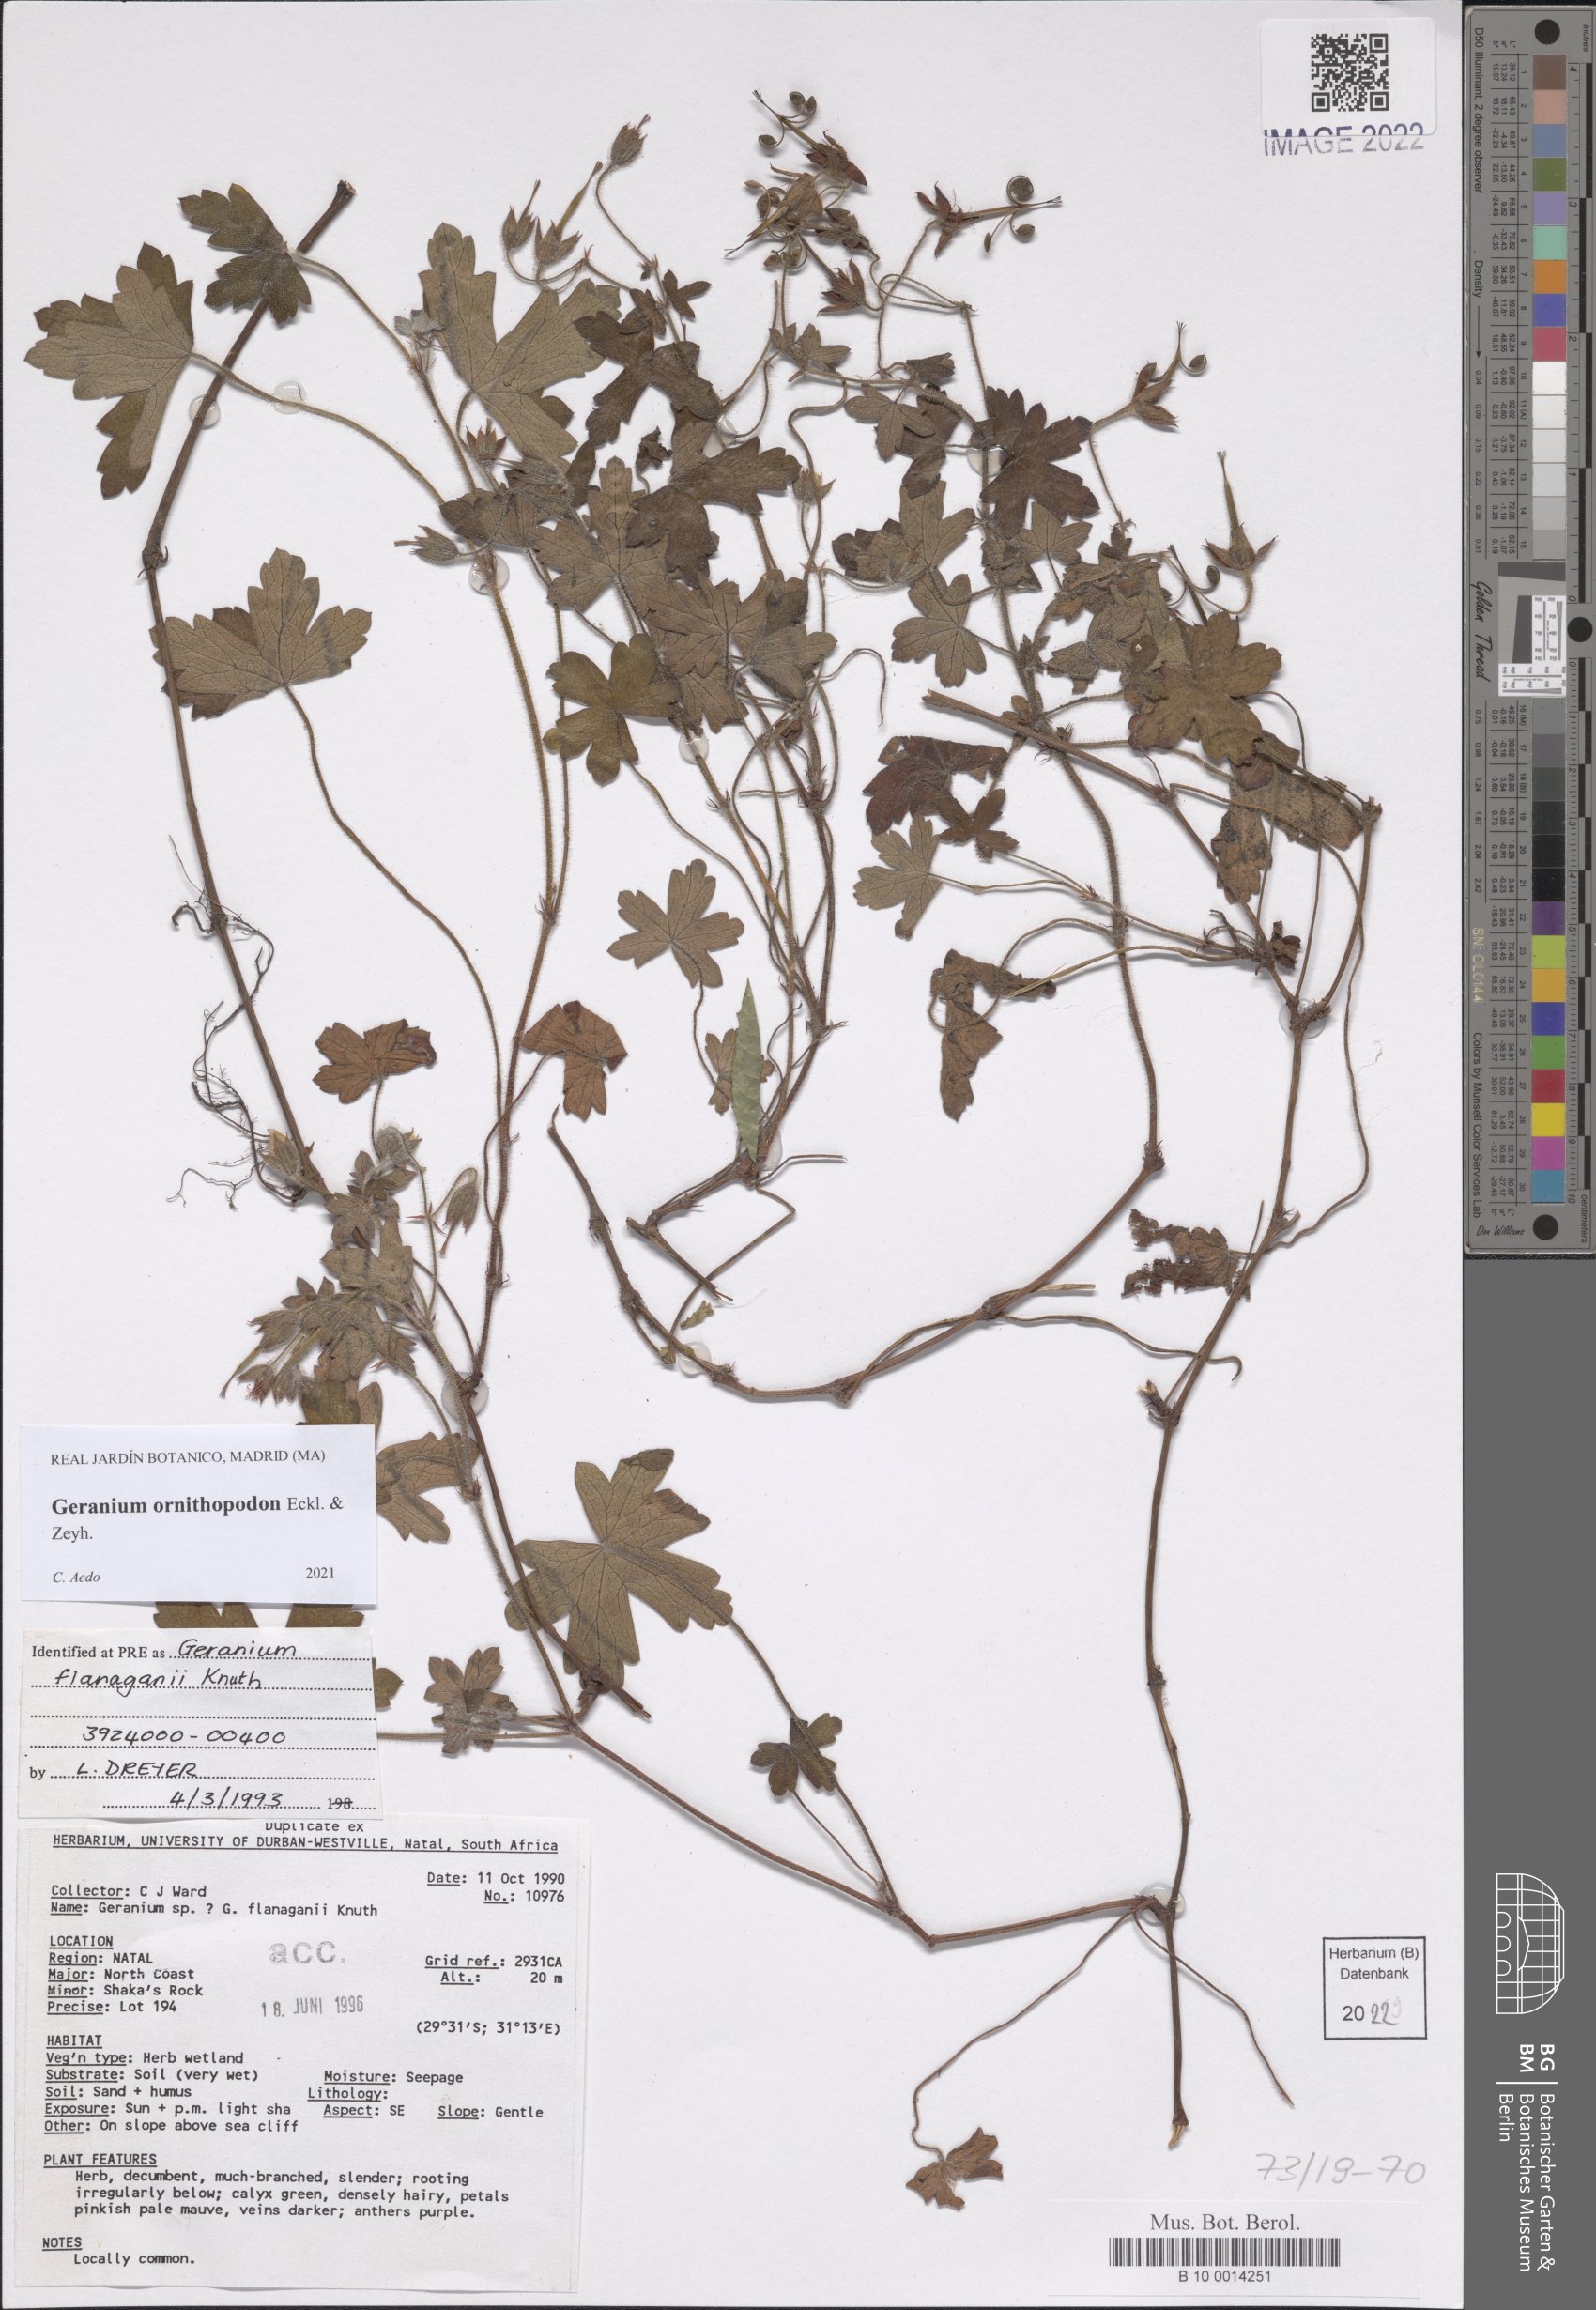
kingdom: Plantae
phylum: Tracheophyta
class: Magnoliopsida
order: Geraniales
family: Geraniaceae
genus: Geranium
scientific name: Geranium ornithopodon
